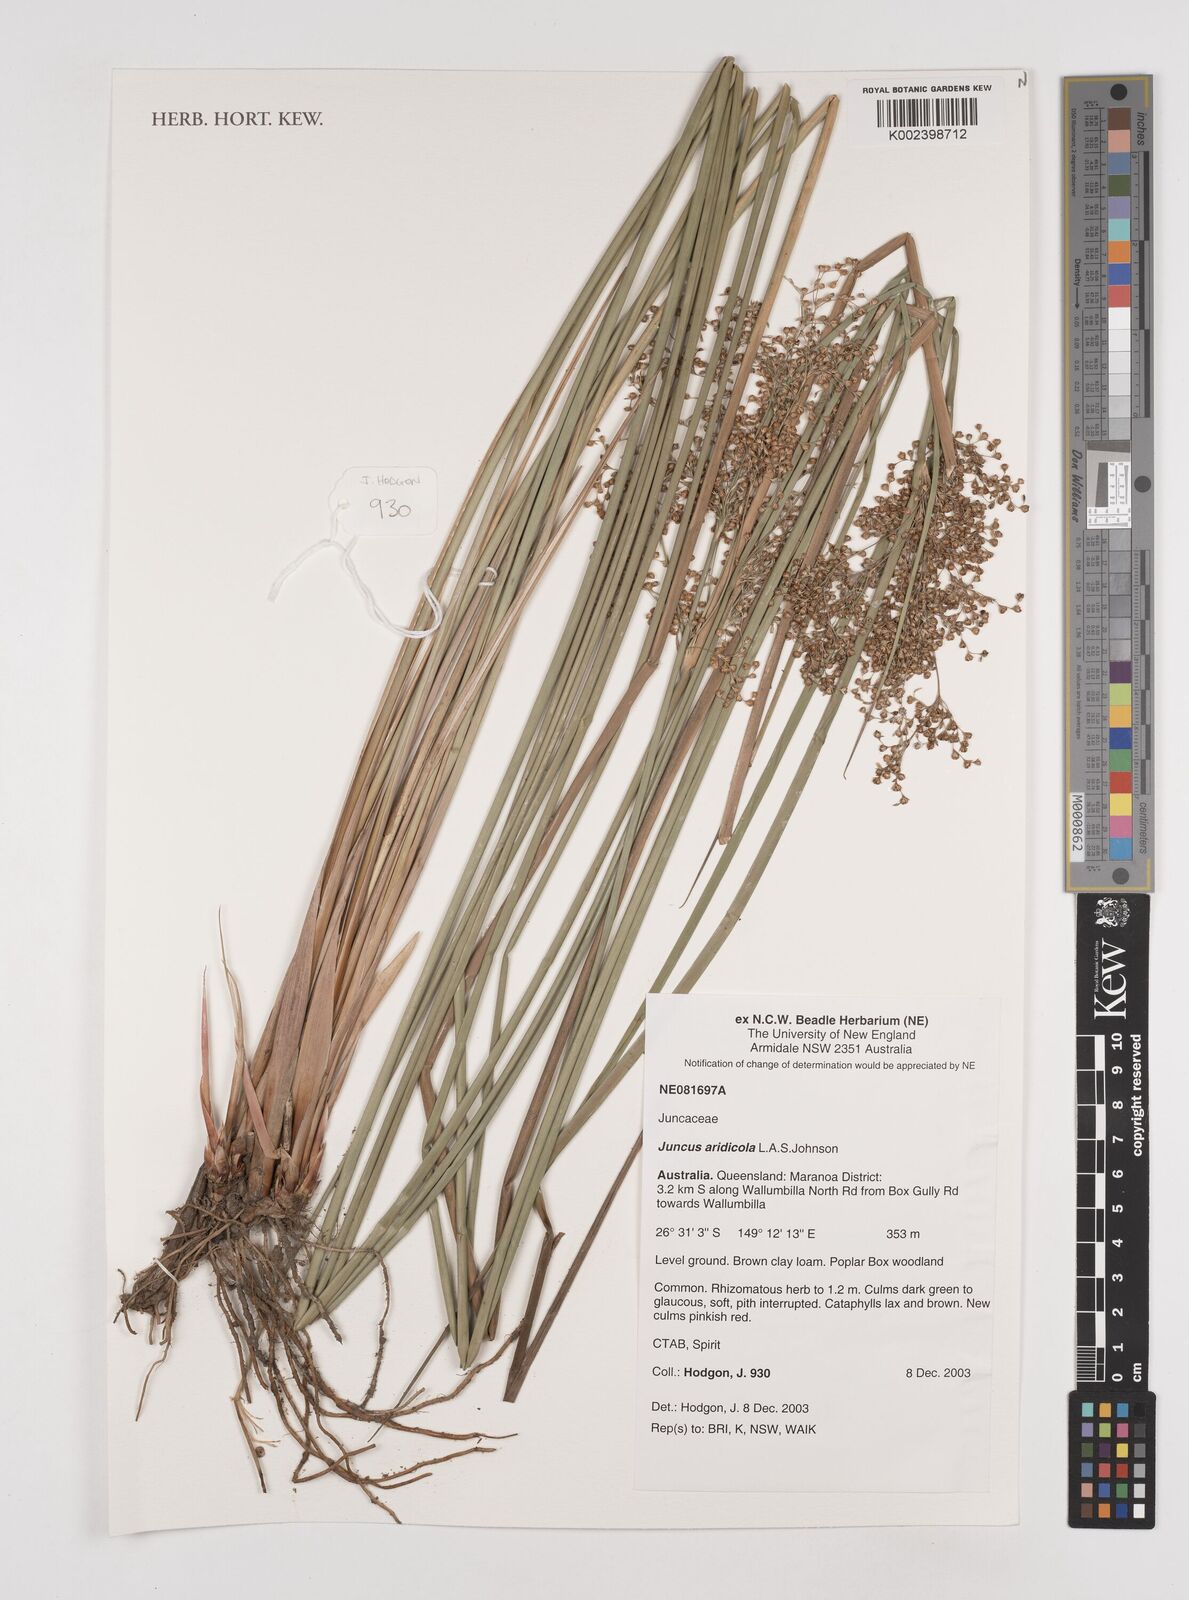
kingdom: Plantae
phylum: Tracheophyta
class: Liliopsida
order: Poales
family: Juncaceae
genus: Juncus
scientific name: Juncus aridicola
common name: Tussock rush
